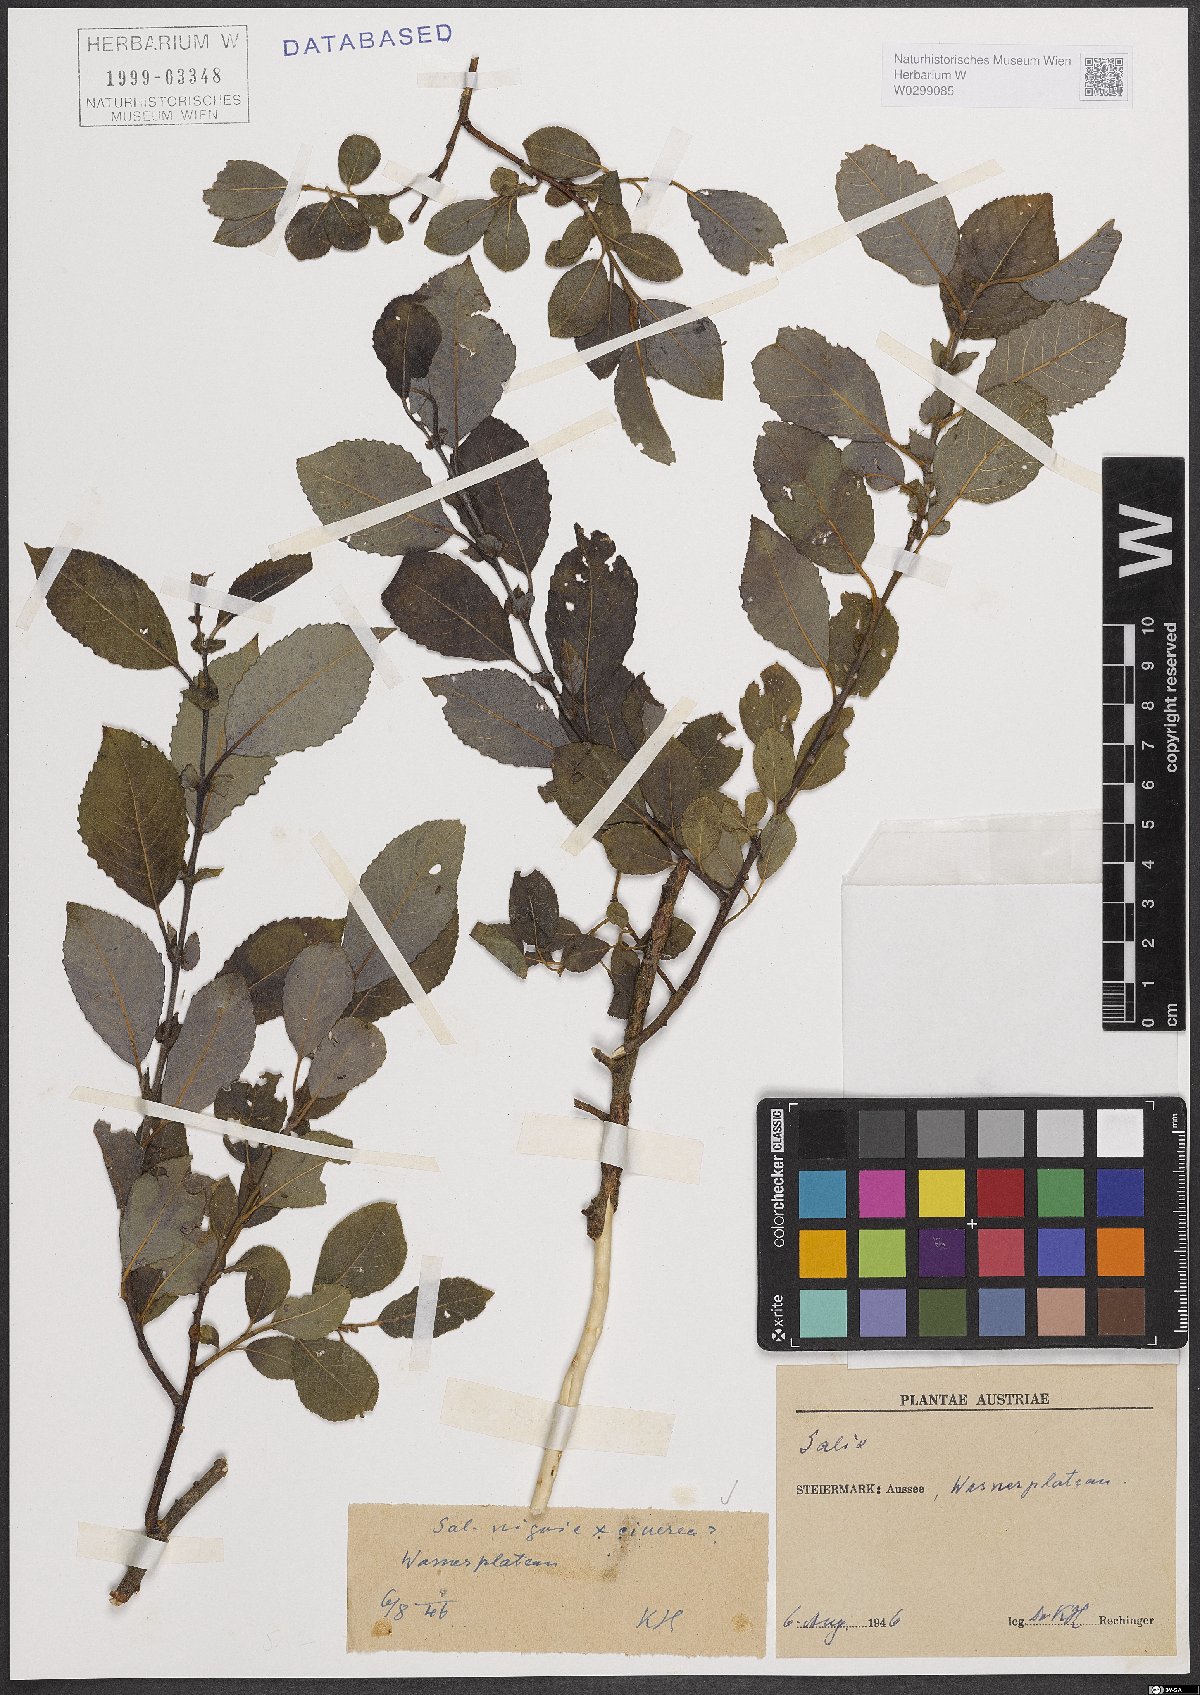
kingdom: Plantae
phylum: Tracheophyta
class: Magnoliopsida
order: Malpighiales
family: Salicaceae
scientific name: Salicaceae
